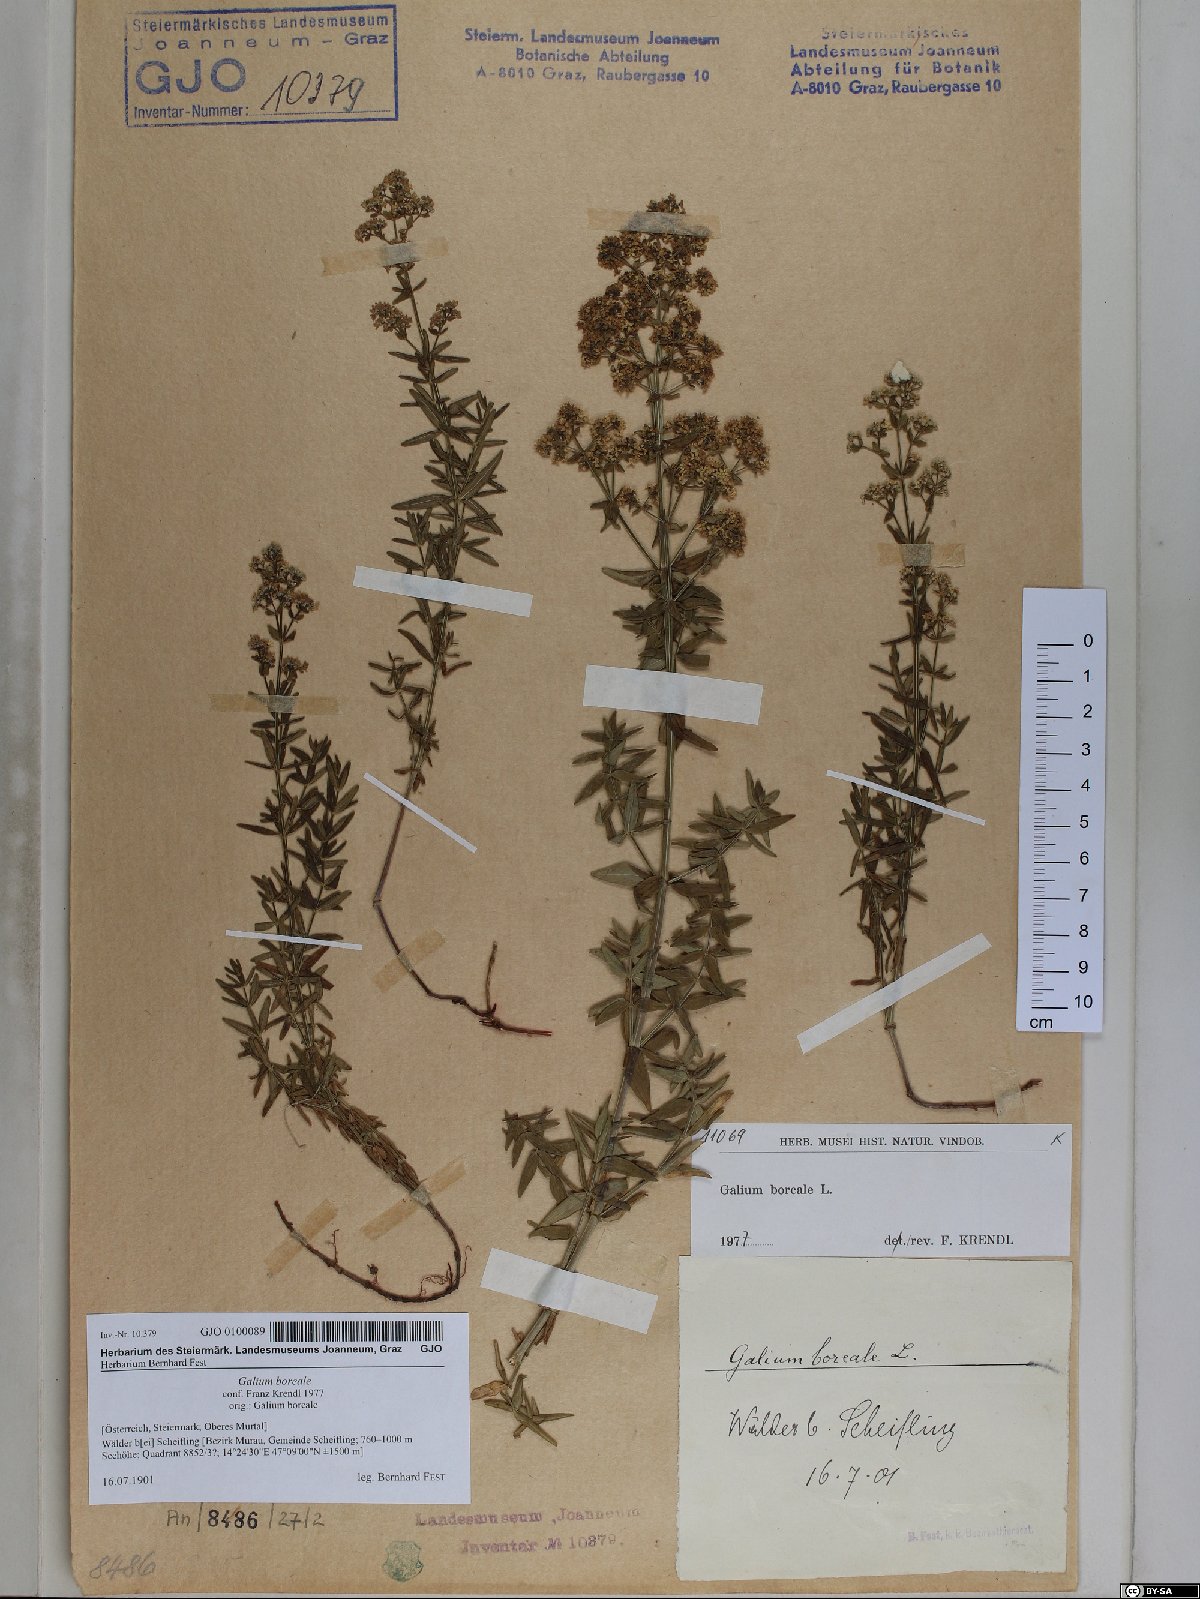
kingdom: Plantae
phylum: Tracheophyta
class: Magnoliopsida
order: Gentianales
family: Rubiaceae
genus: Galium
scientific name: Galium boreale
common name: Northern bedstraw
